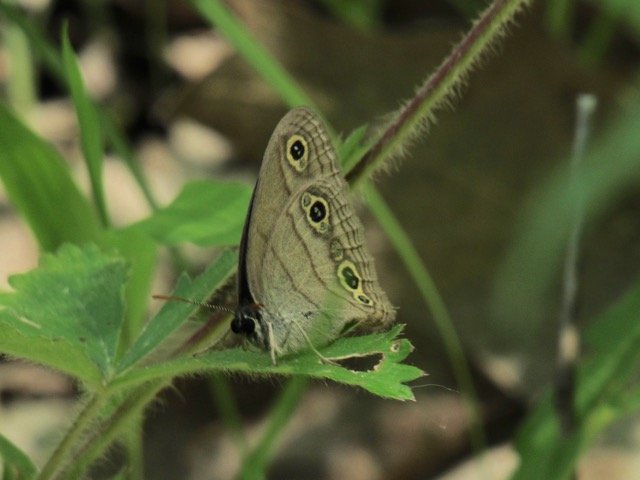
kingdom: Animalia
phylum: Arthropoda
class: Insecta
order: Lepidoptera
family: Nymphalidae
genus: Euptychia
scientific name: Euptychia cymela
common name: Little Wood Satyr
